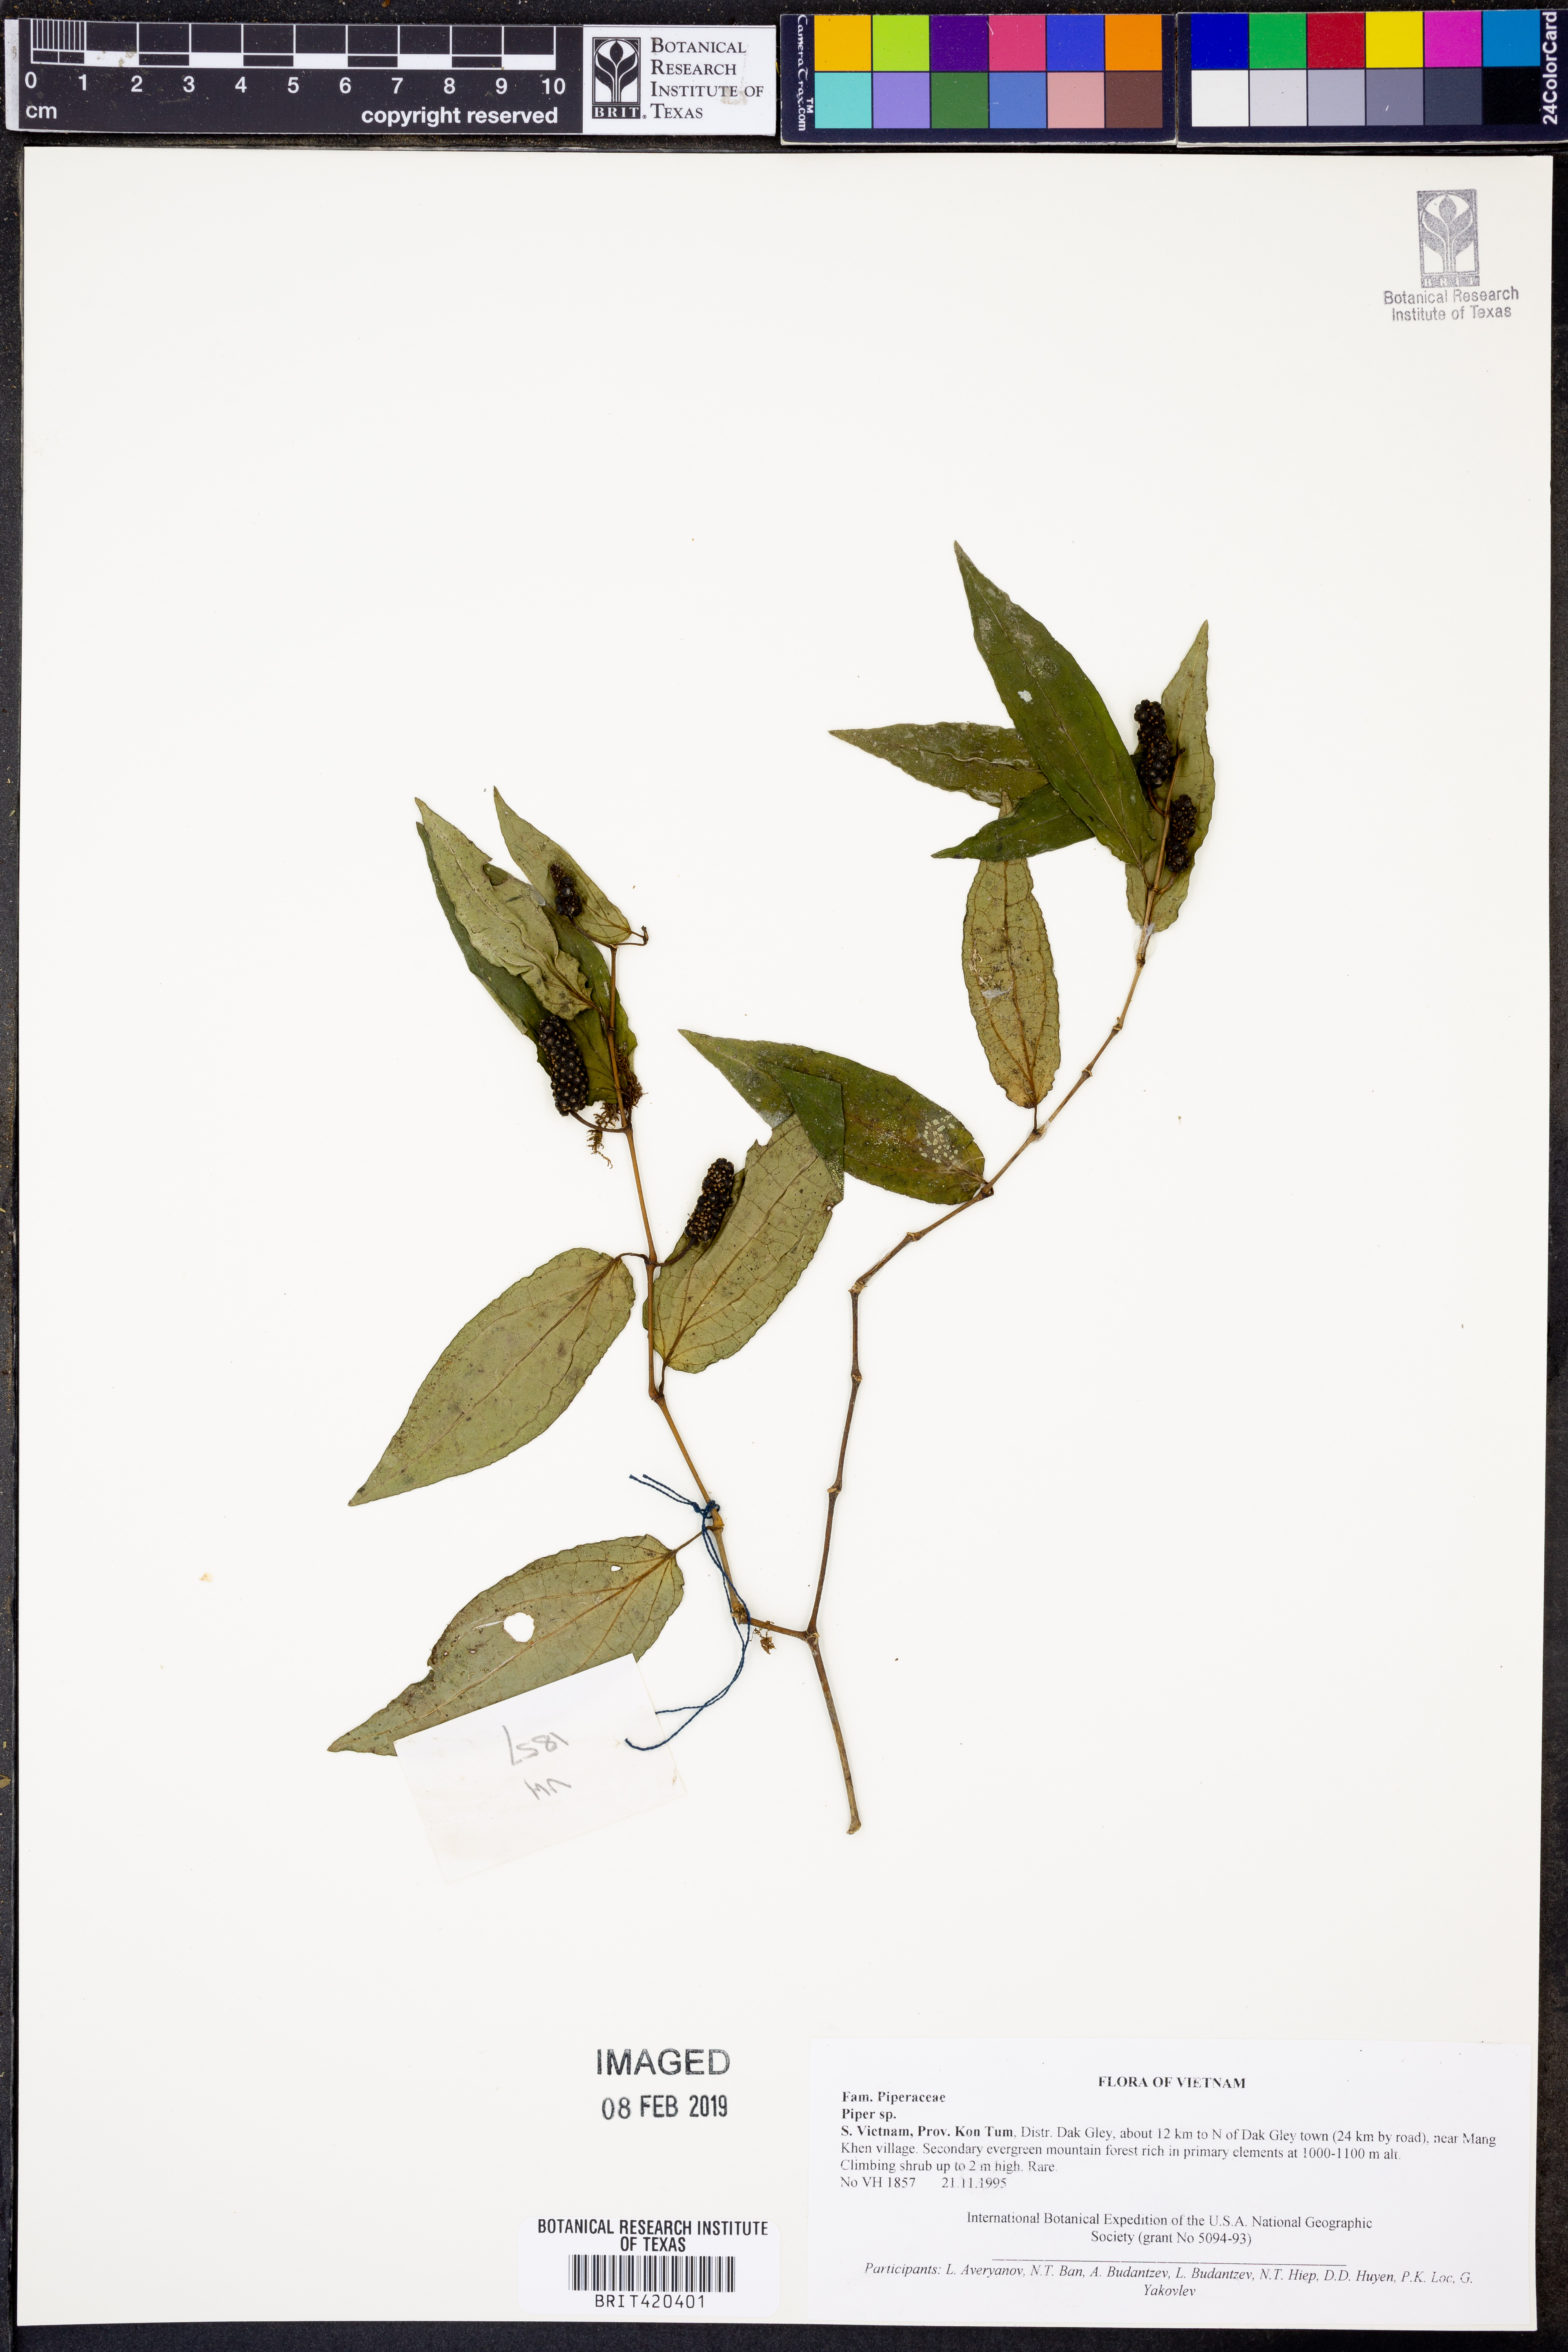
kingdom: Plantae
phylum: Tracheophyta
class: Magnoliopsida
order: Piperales
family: Piperaceae
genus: Piper
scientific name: Piper
